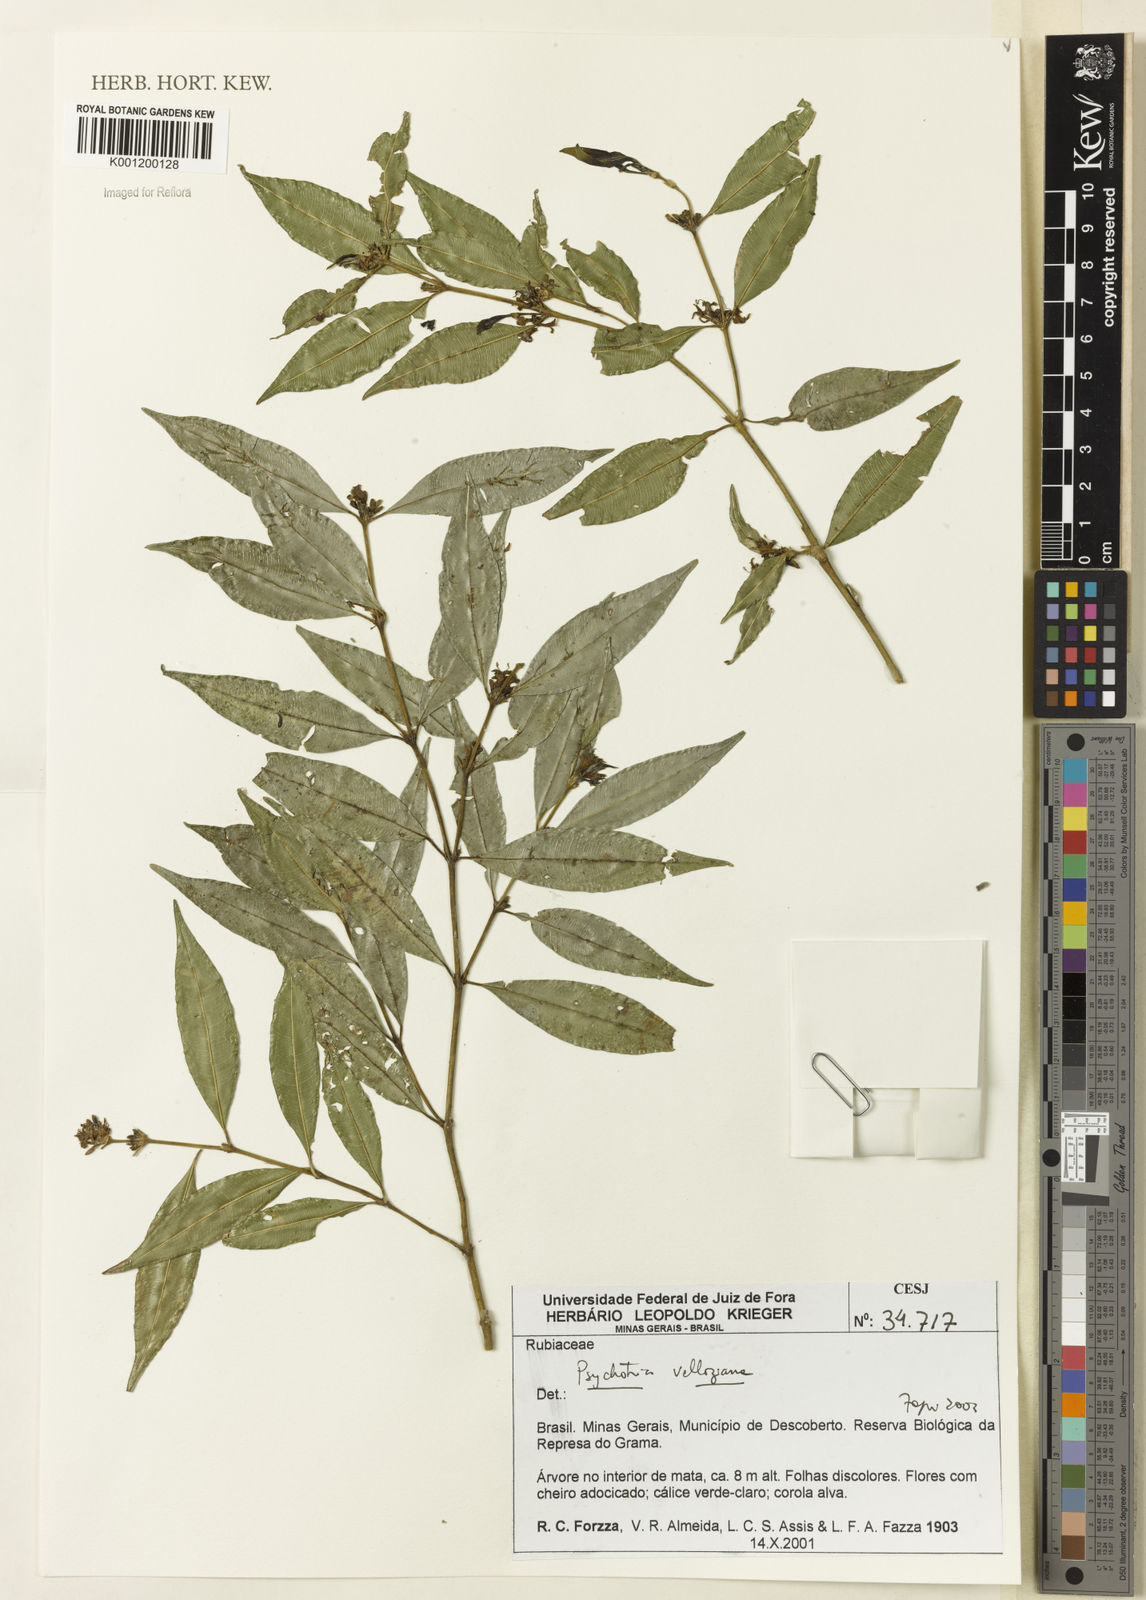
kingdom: Plantae
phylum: Tracheophyta
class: Magnoliopsida
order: Gentianales
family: Rubiaceae
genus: Rudgea
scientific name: Rudgea sessilis
